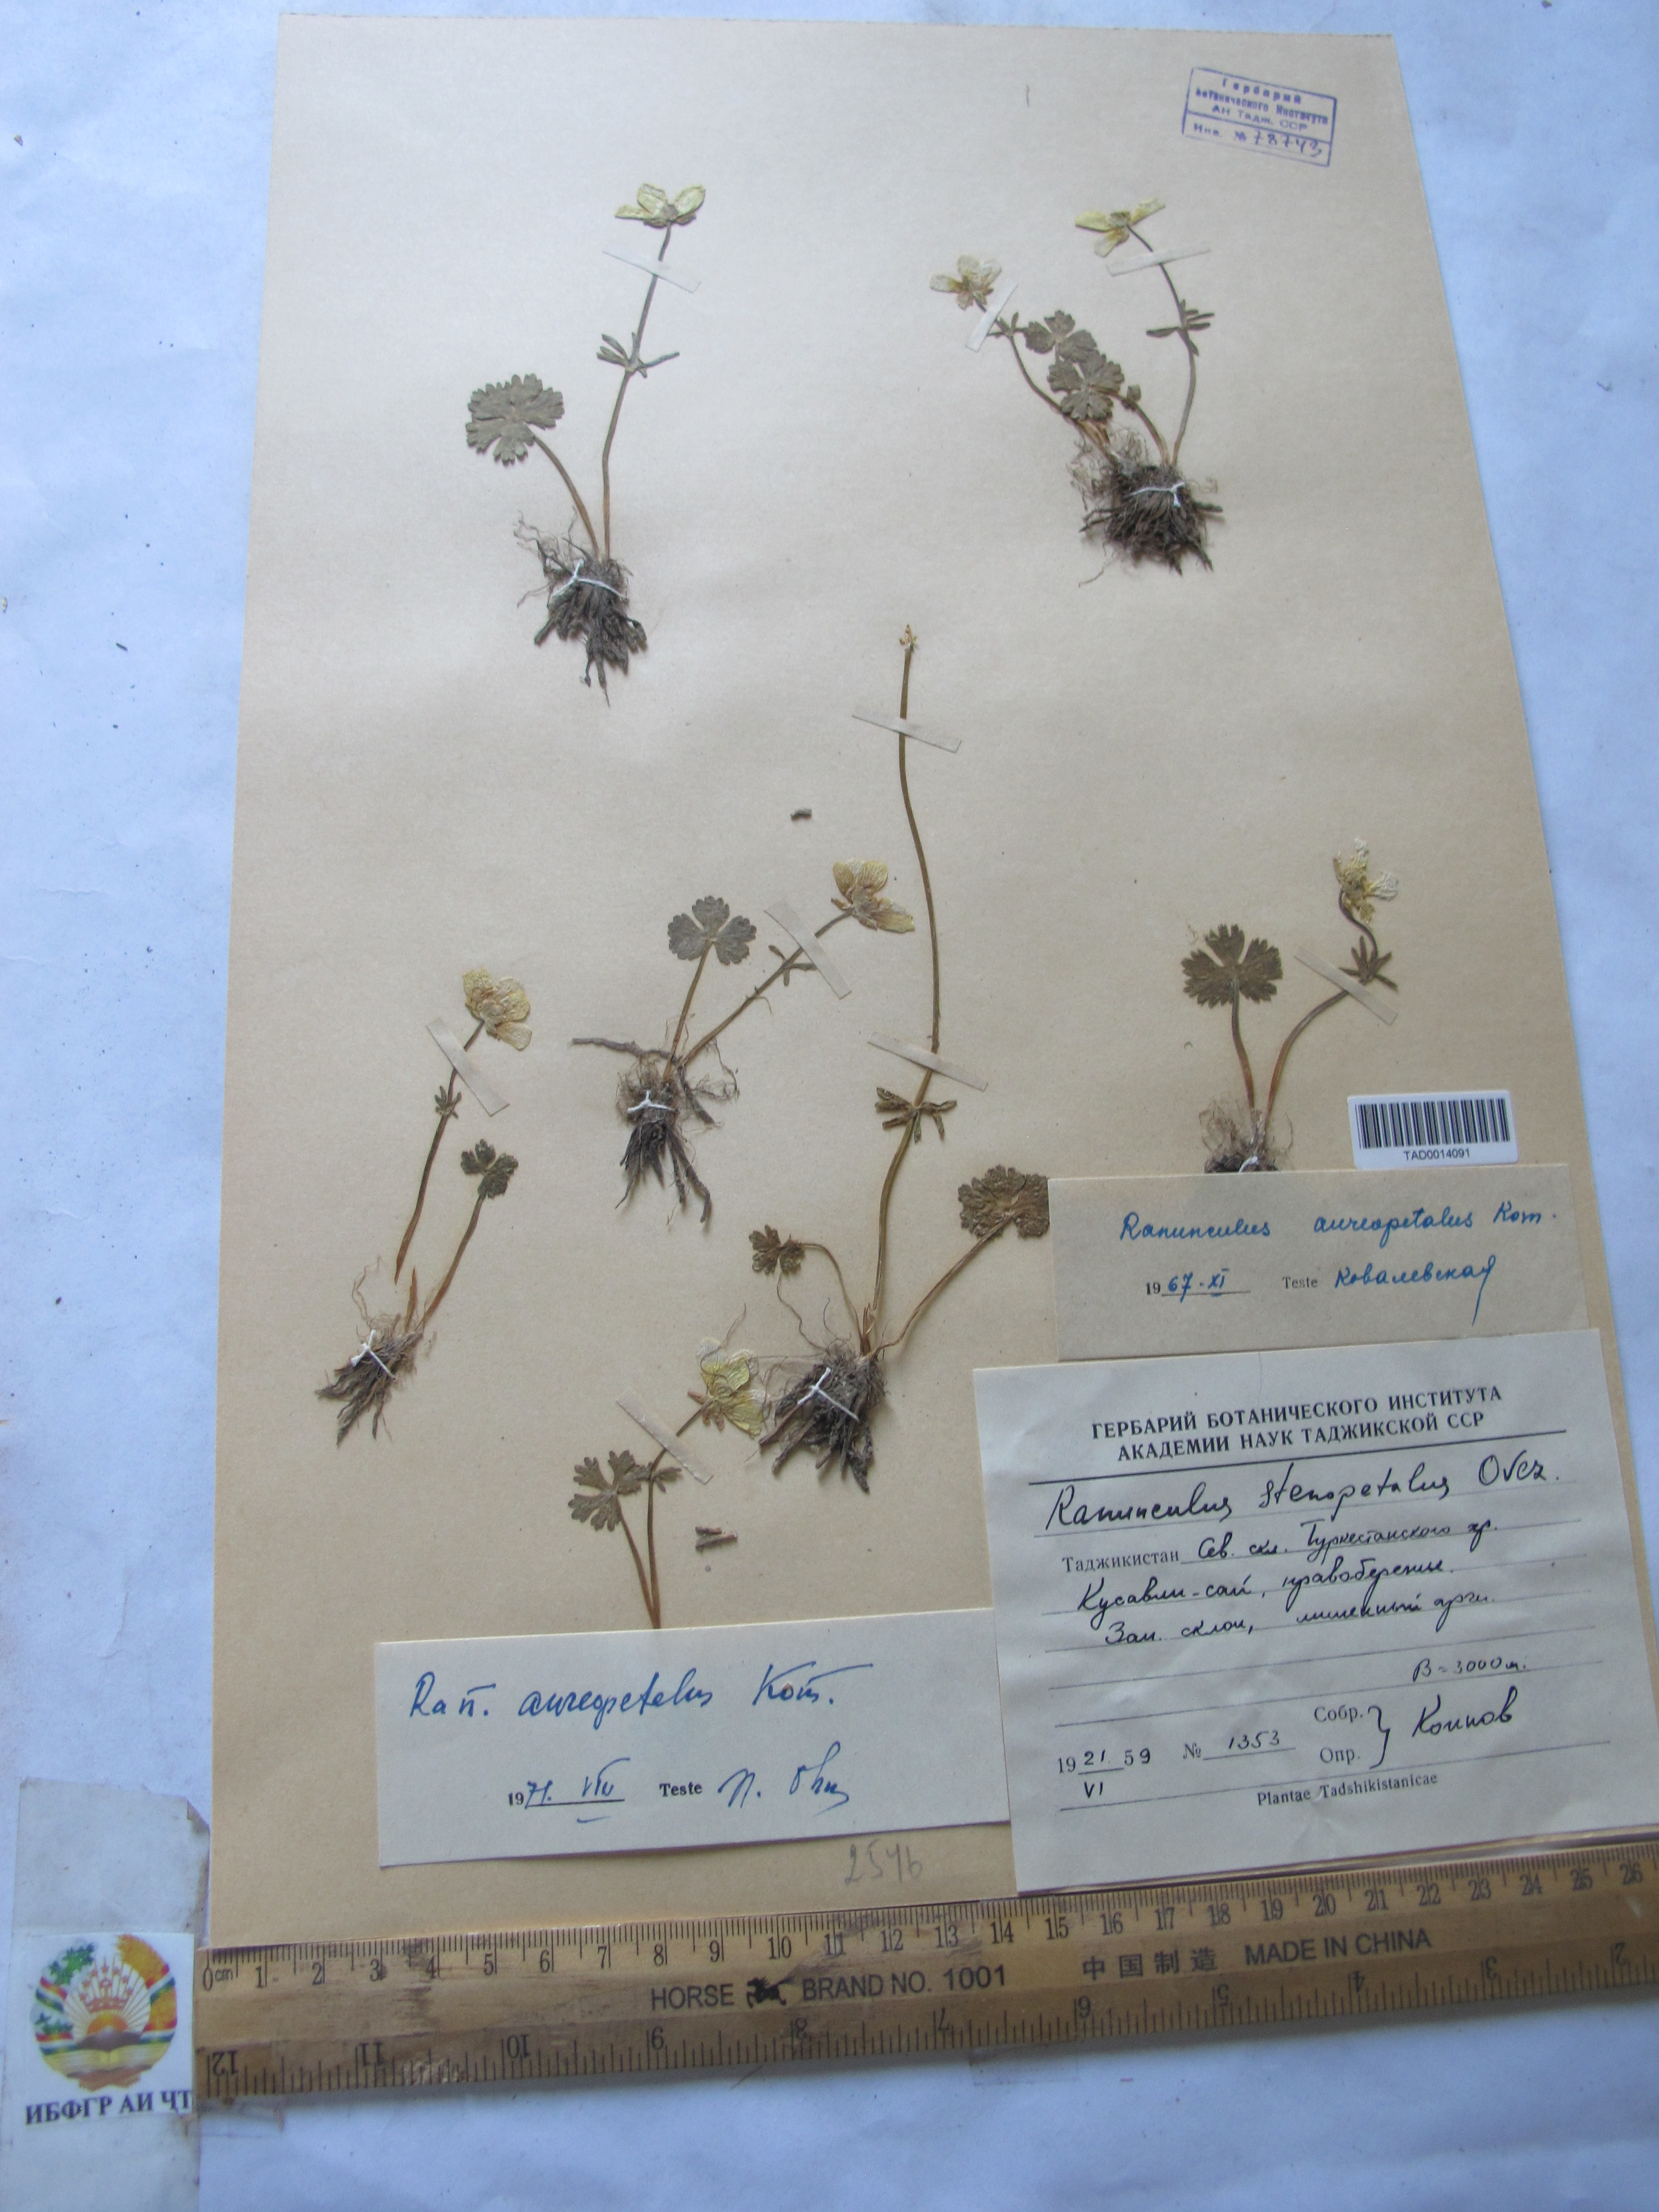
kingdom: Plantae
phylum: Tracheophyta
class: Magnoliopsida
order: Ranunculales
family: Ranunculaceae
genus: Ranunculus
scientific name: Ranunculus aureopetalus
